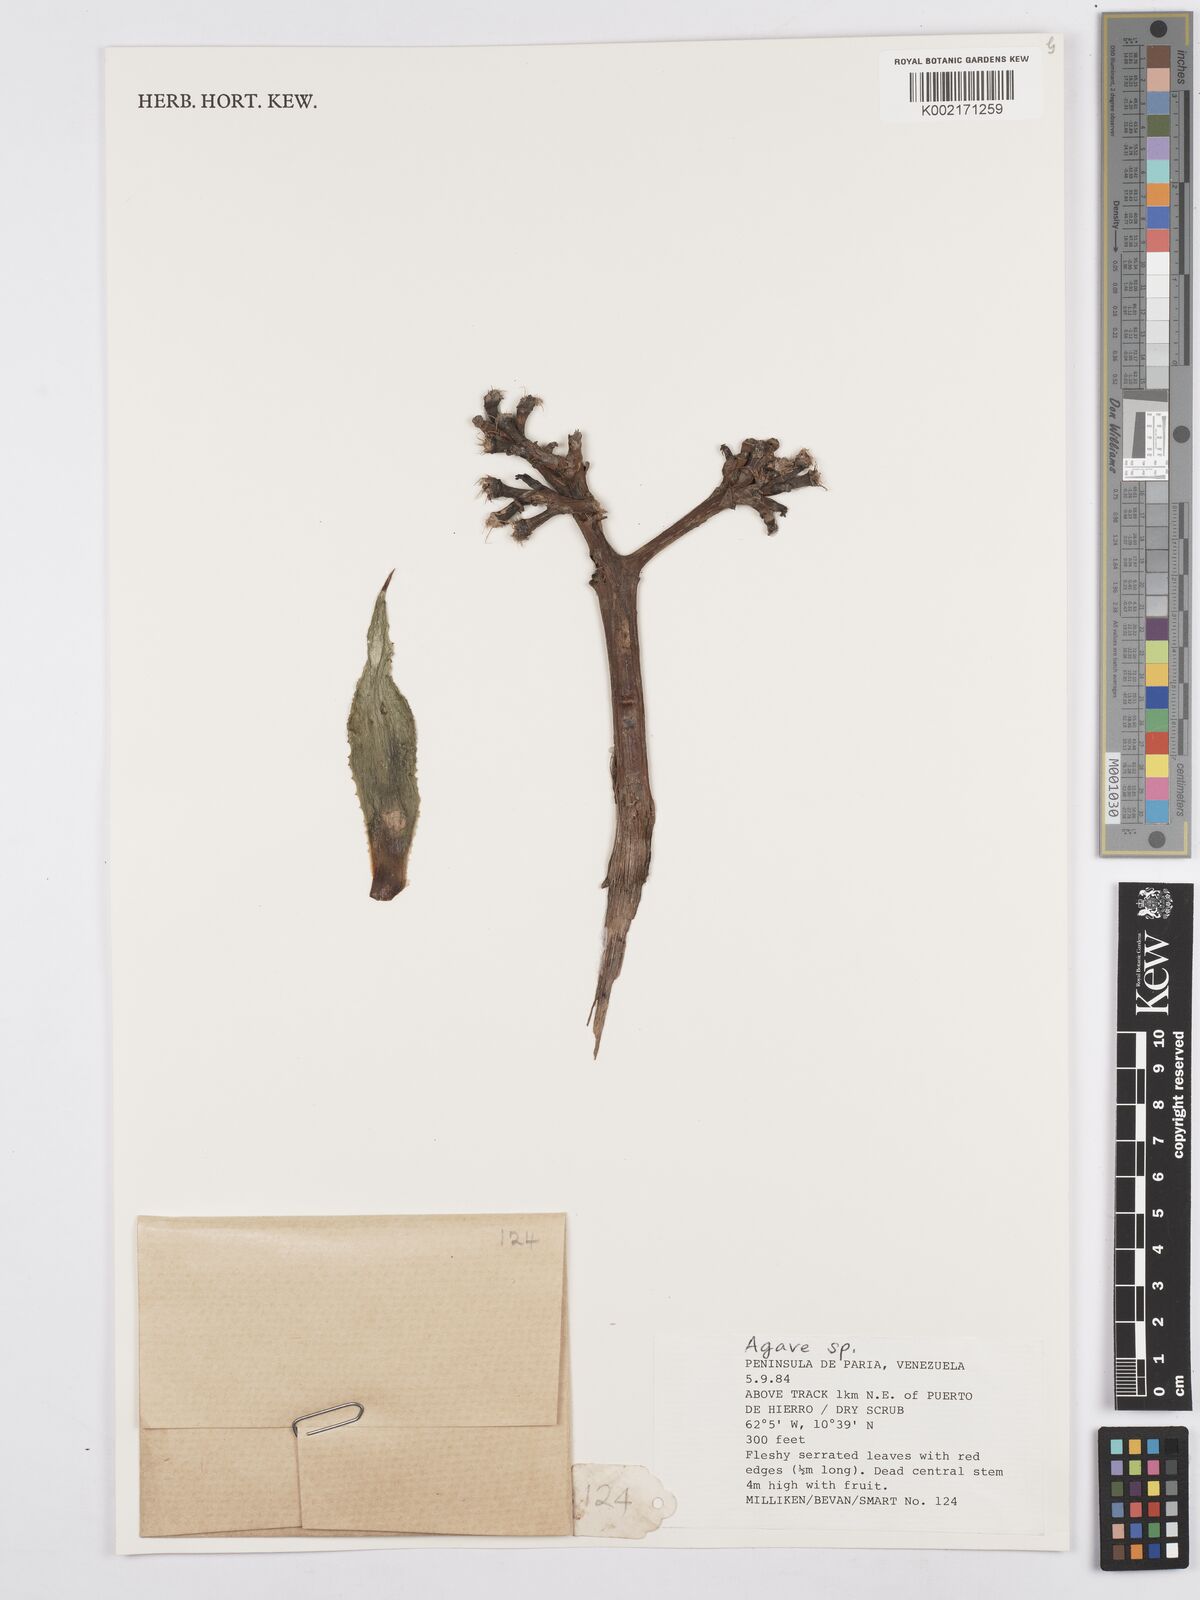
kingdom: Plantae
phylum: Tracheophyta
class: Liliopsida
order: Asparagales
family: Asparagaceae
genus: Agave
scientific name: Agave
